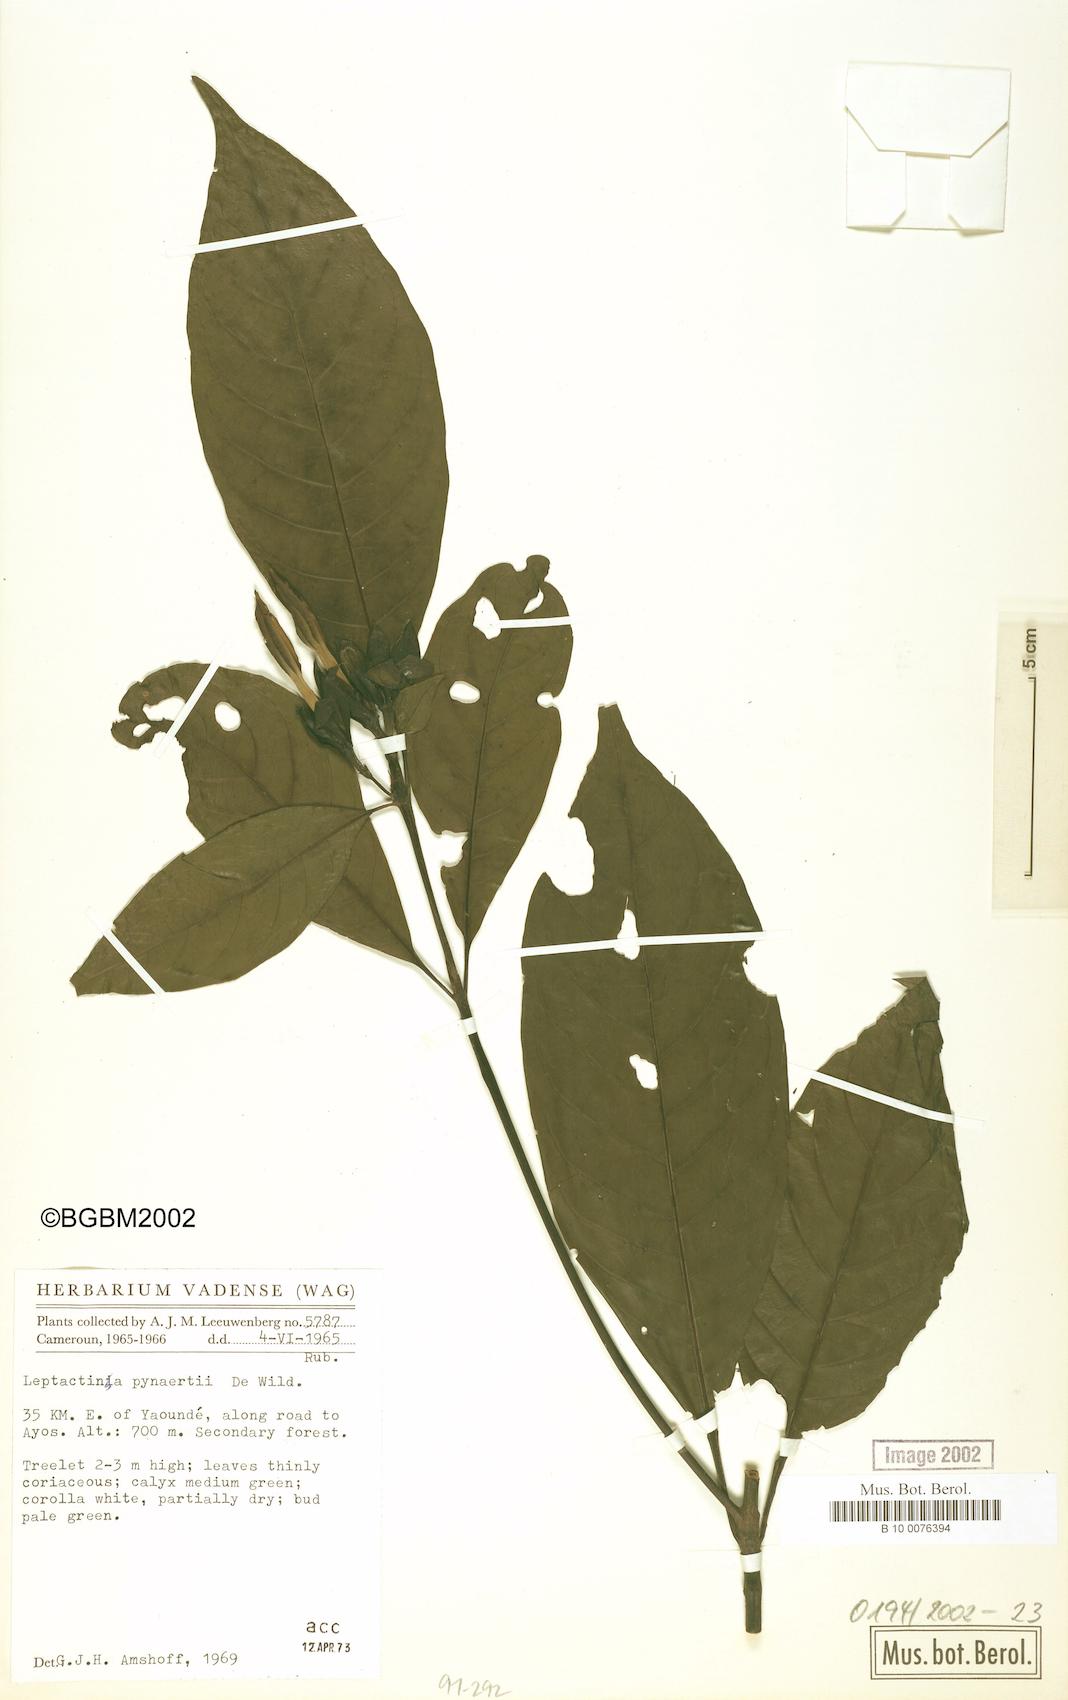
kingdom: Plantae
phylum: Tracheophyta
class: Magnoliopsida
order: Gentianales
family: Rubiaceae
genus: Leptactina
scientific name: Leptactina pynaertii
